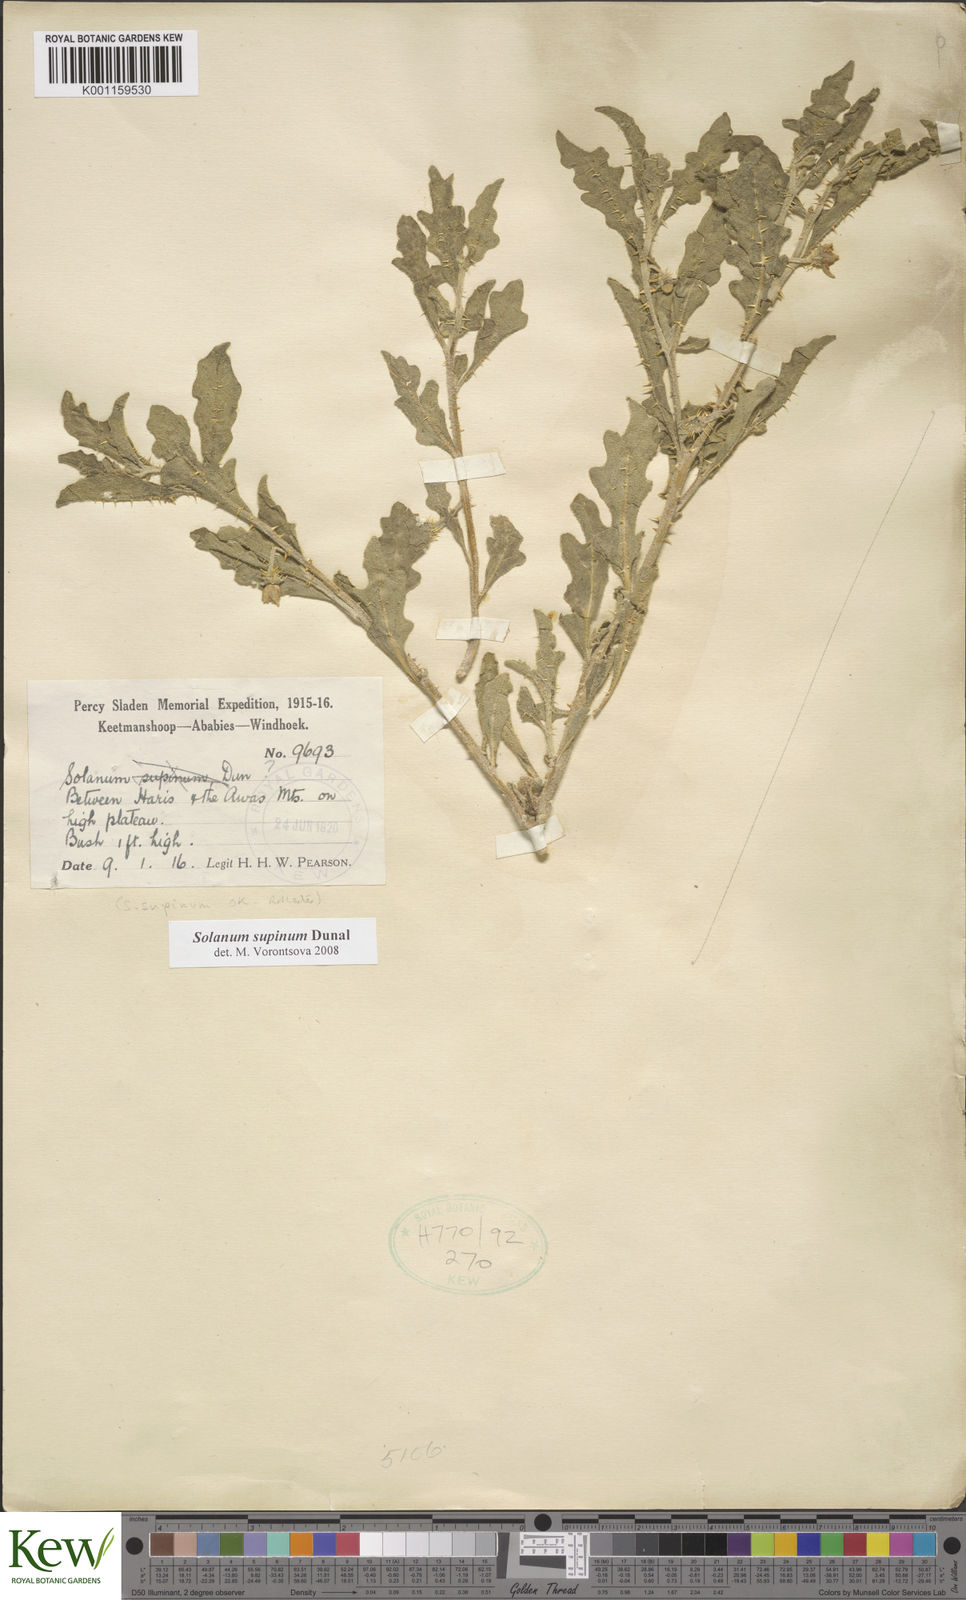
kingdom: Plantae
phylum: Tracheophyta
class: Magnoliopsida
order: Solanales
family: Solanaceae
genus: Solanum
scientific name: Solanum supinum
